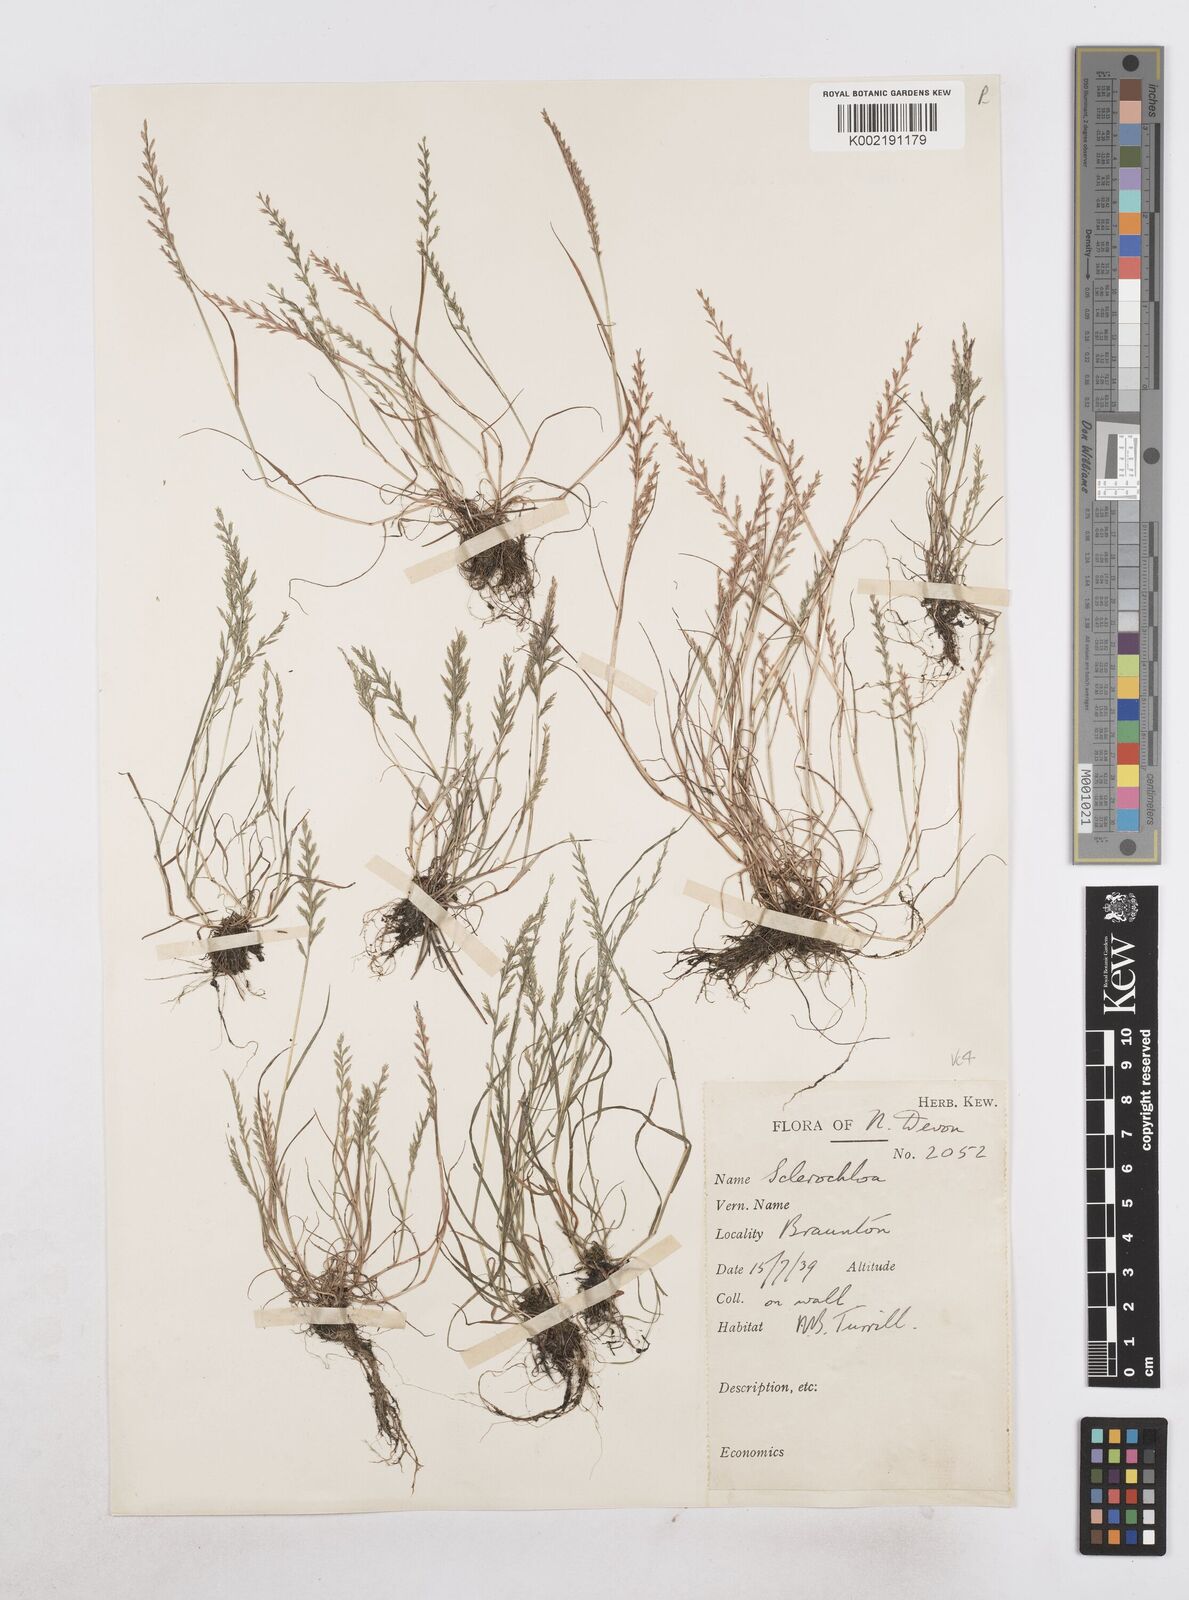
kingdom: Plantae
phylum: Tracheophyta
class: Liliopsida
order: Poales
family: Poaceae
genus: Catapodium
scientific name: Catapodium rigidum
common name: Fern-grass
